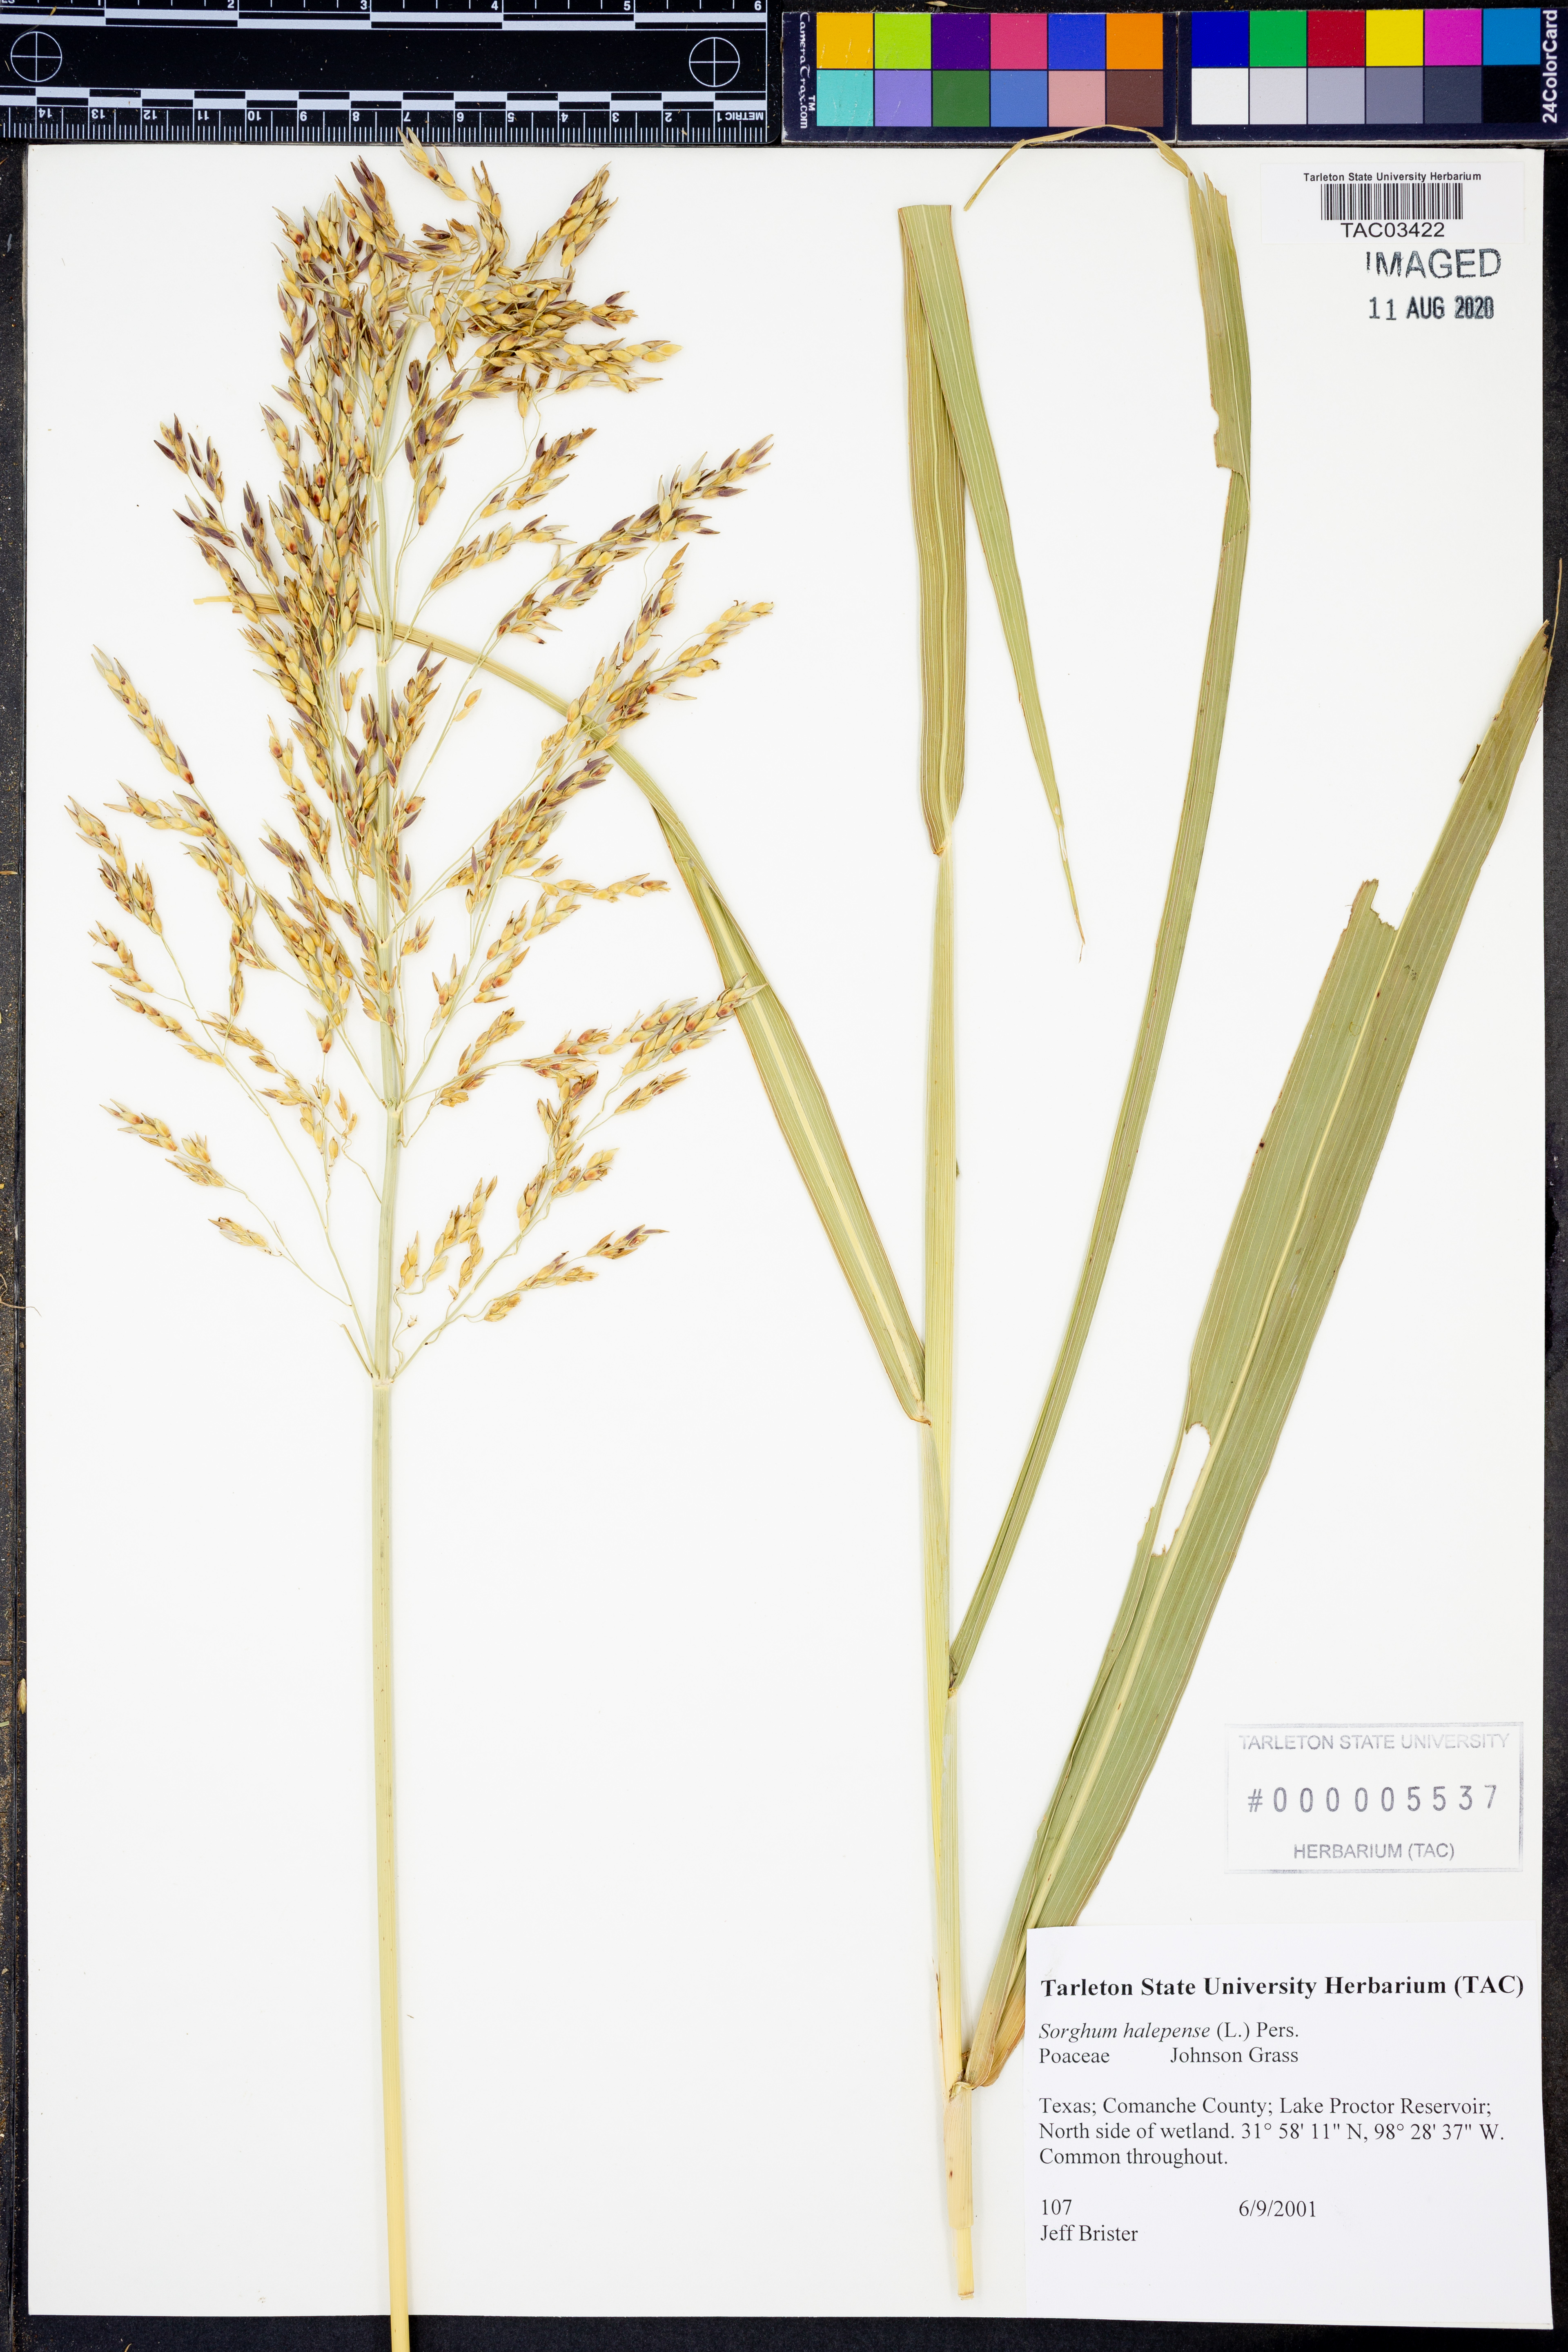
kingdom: Plantae
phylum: Tracheophyta
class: Liliopsida
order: Poales
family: Poaceae
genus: Sorghum
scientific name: Sorghum halepense
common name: Johnson-grass
